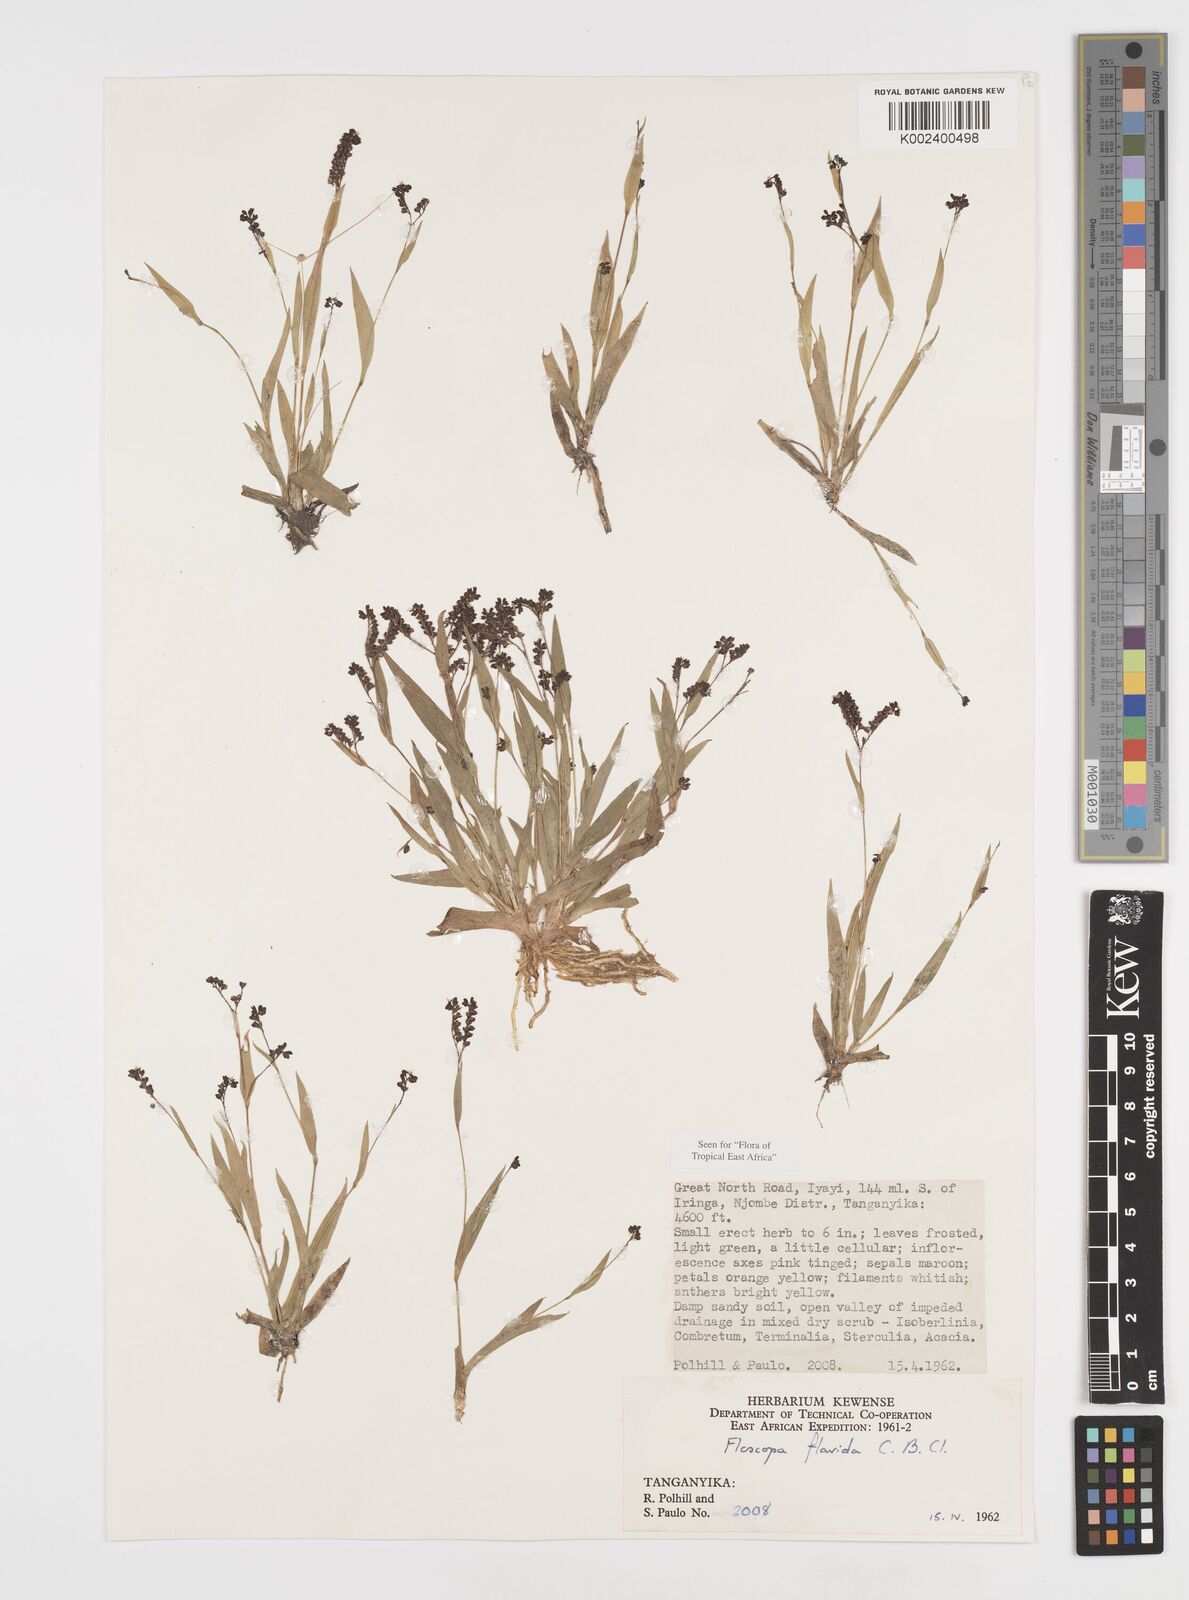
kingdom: Plantae
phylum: Tracheophyta
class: Liliopsida
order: Commelinales
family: Commelinaceae
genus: Floscopa
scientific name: Floscopa flavida
